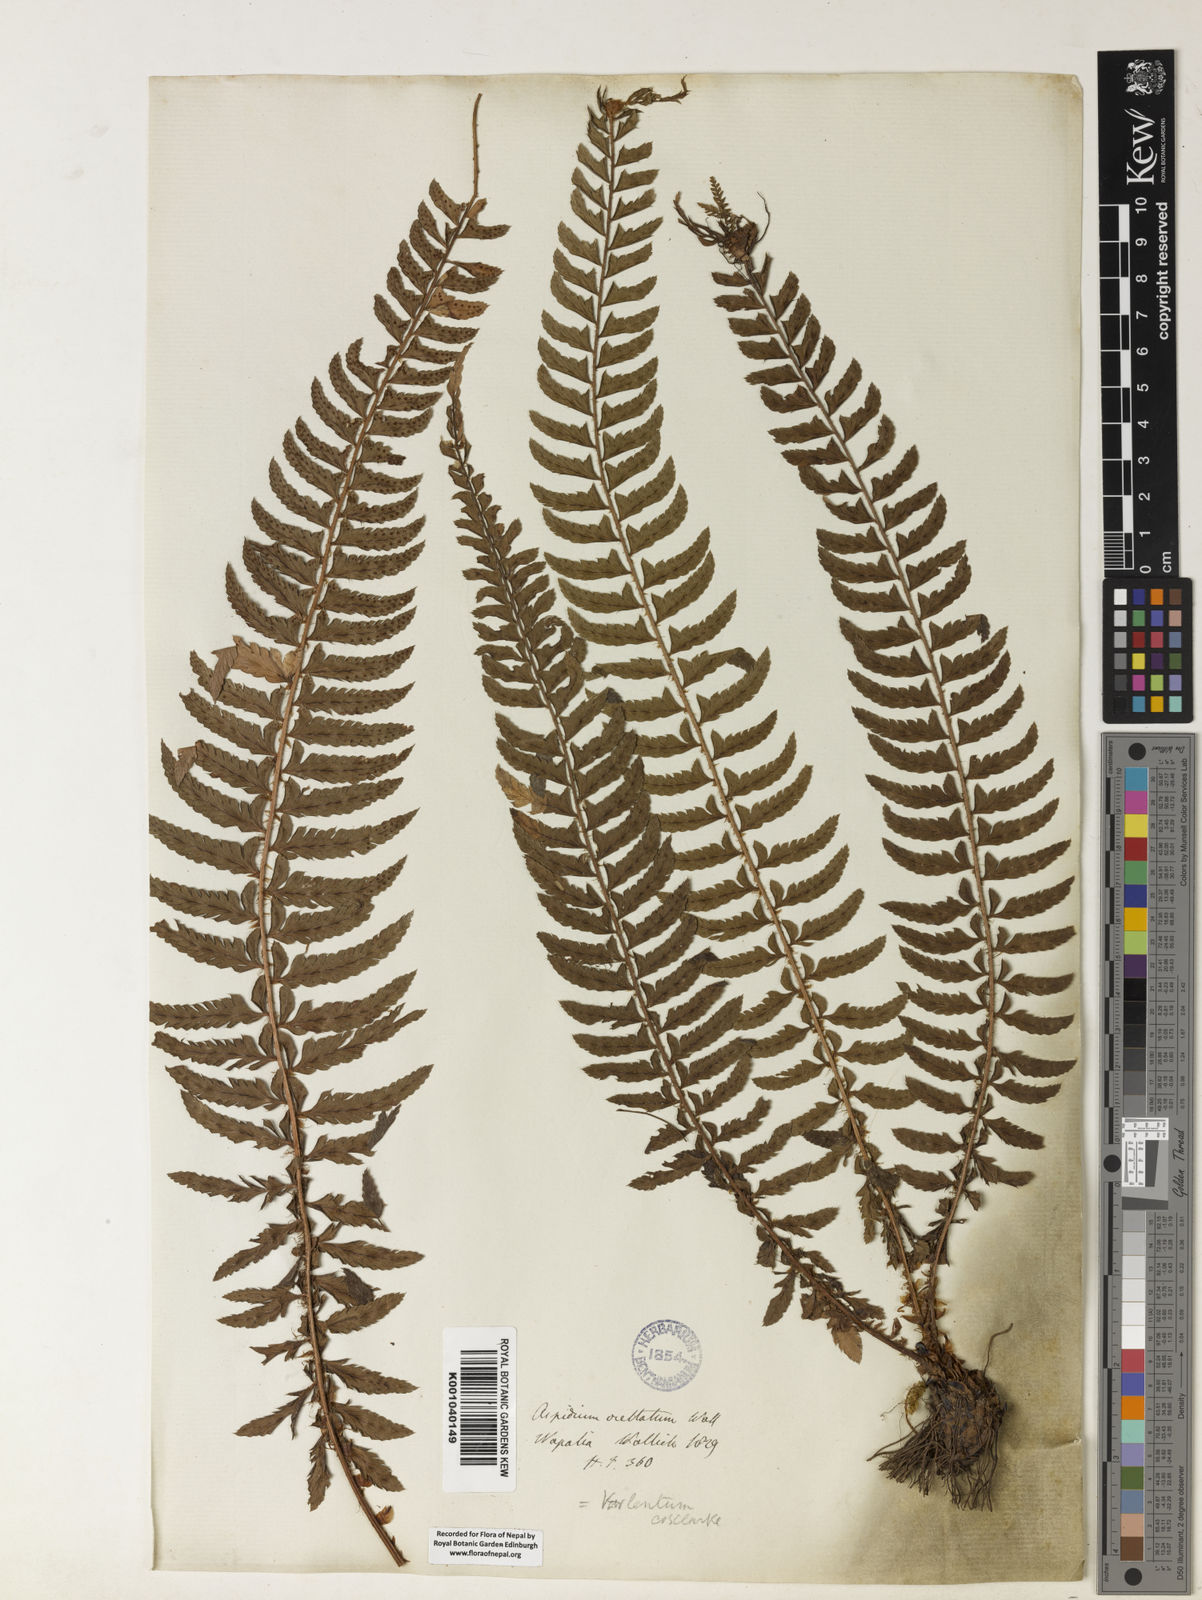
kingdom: Plantae
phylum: Tracheophyta
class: Polypodiopsida
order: Polypodiales
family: Dryopteridaceae
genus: Polystichum
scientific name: Polystichum lentum
